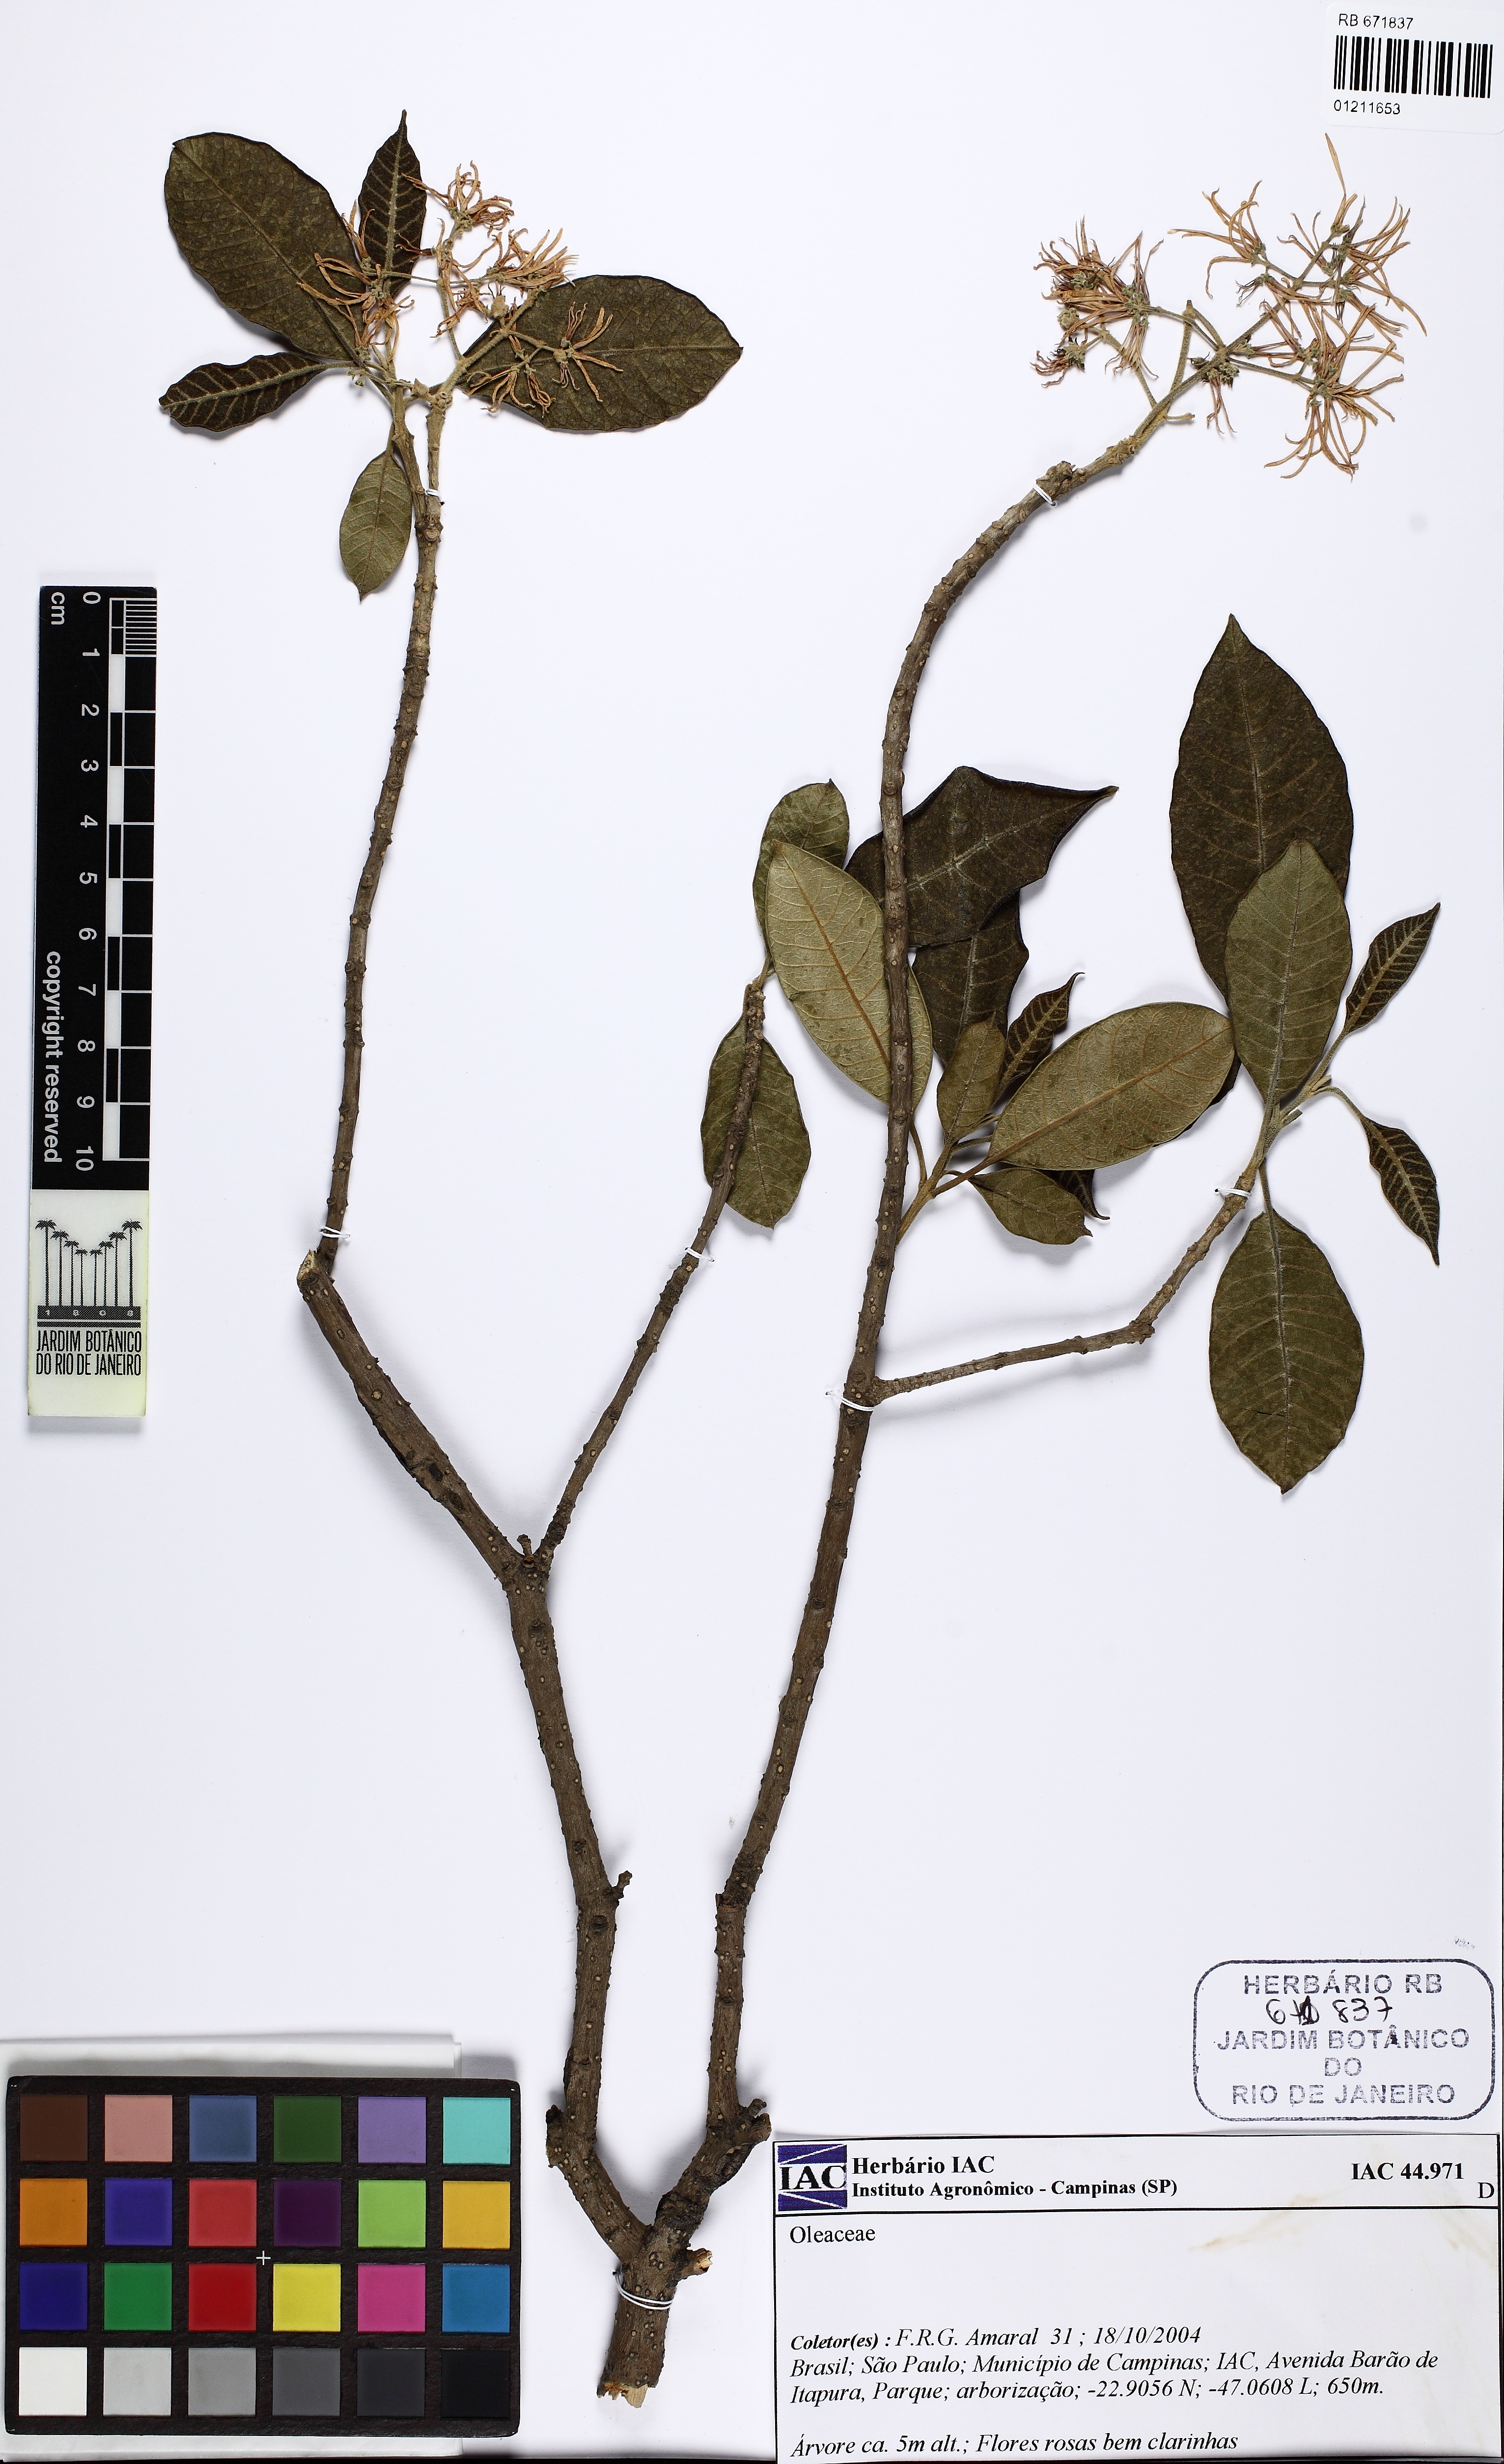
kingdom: Plantae
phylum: Tracheophyta
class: Magnoliopsida
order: Lamiales
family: Oleaceae
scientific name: Oleaceae
